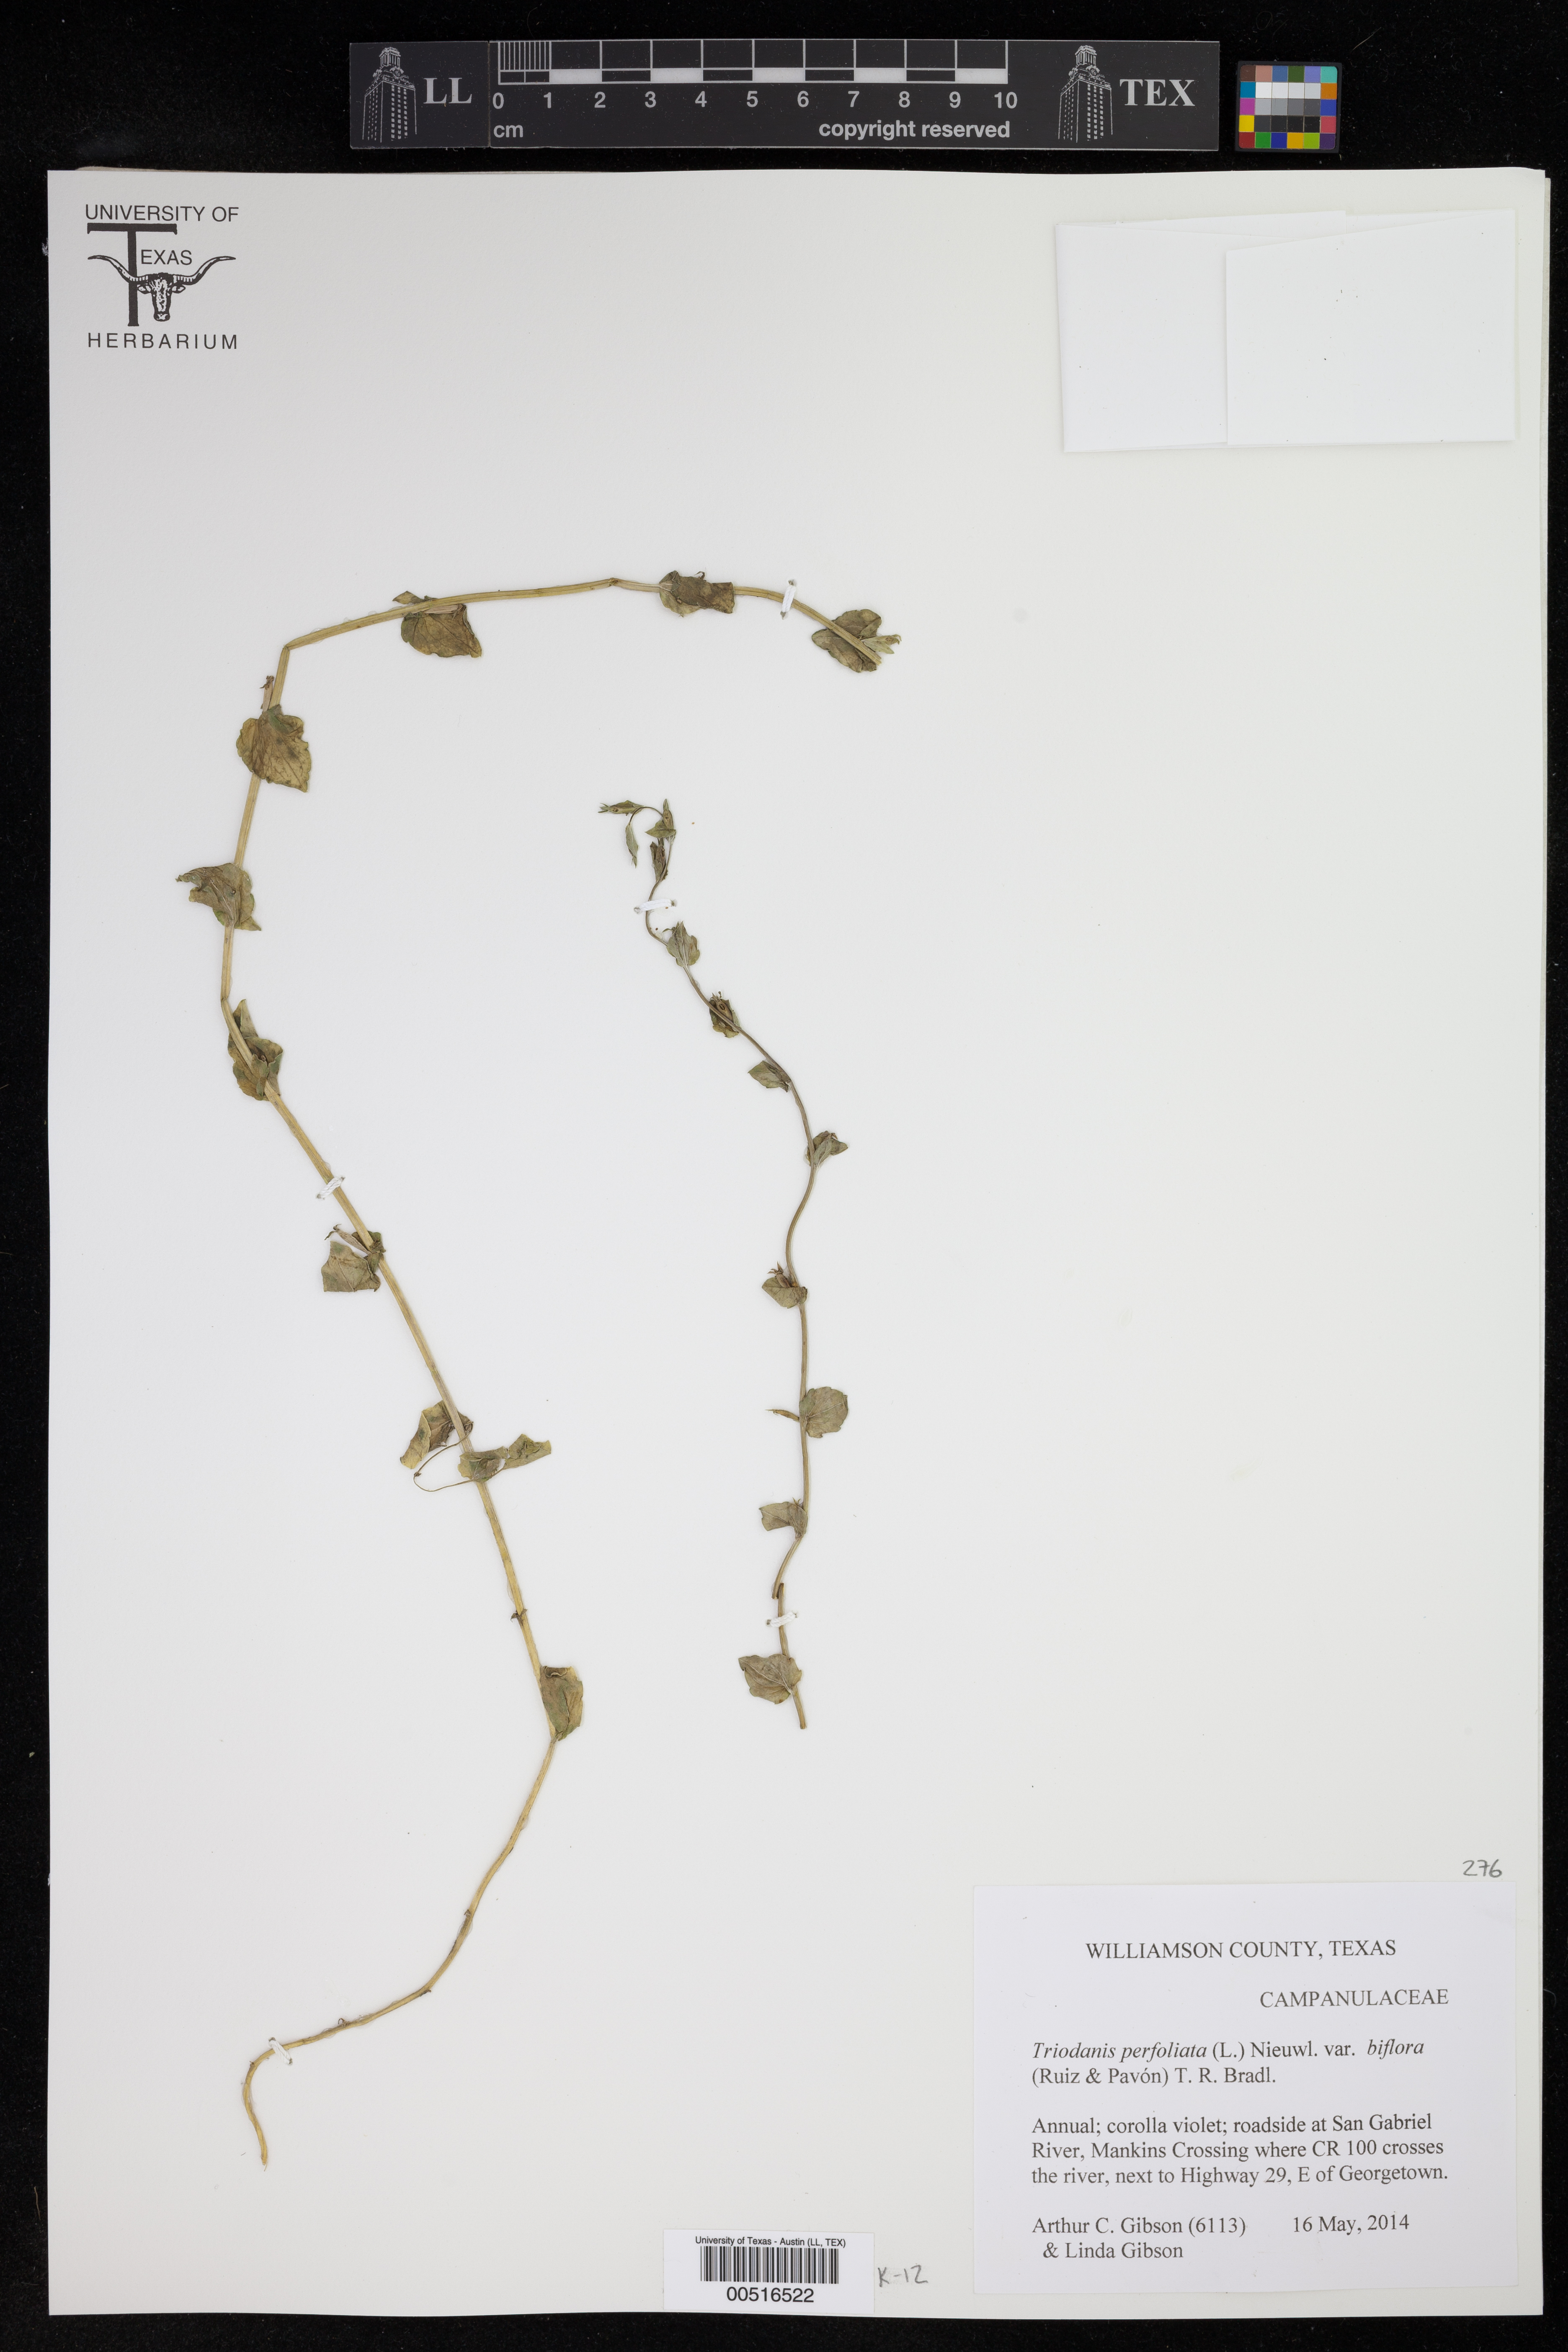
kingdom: Plantae
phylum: Tracheophyta
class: Magnoliopsida
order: Asterales
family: Campanulaceae
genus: Triodanis
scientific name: Triodanis perfoliata
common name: Clasping venus' looking-glass
